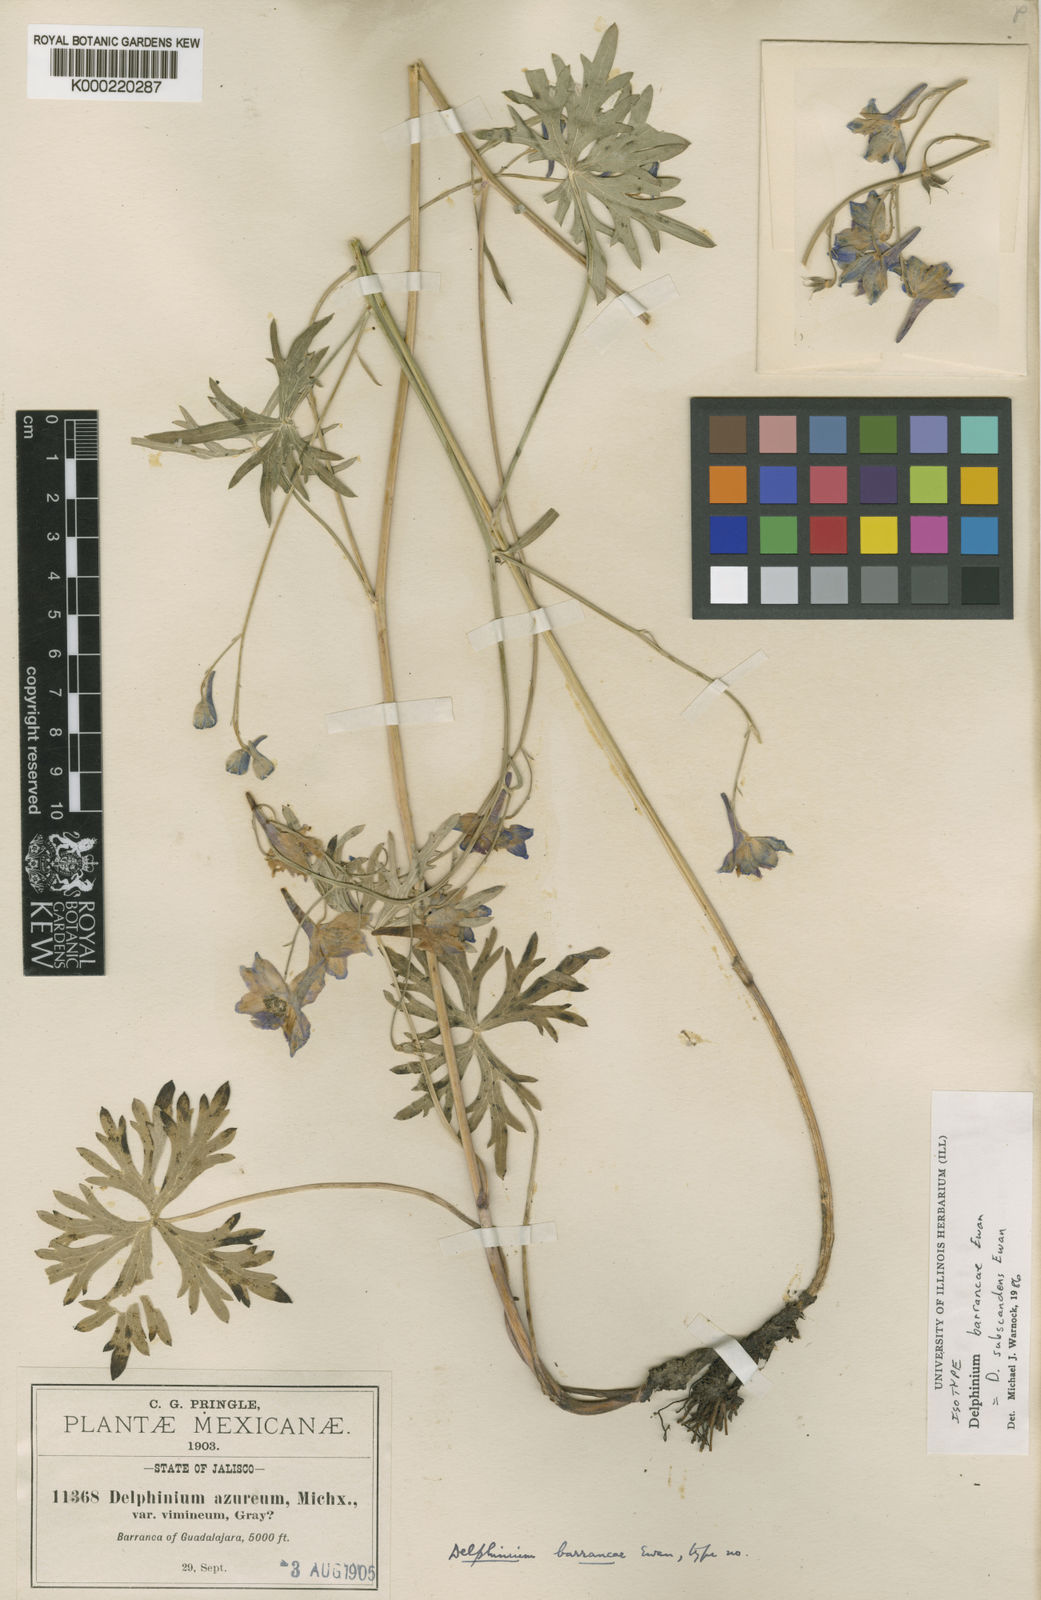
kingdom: Plantae
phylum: Tracheophyta
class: Magnoliopsida
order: Ranunculales
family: Ranunculaceae
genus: Delphinium
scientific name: Delphinium carolinianum
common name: Carolina larkspur
